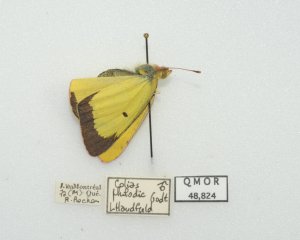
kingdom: Animalia
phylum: Arthropoda
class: Insecta
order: Lepidoptera
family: Pieridae
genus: Colias
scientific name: Colias philodice
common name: Clouded Sulphur
